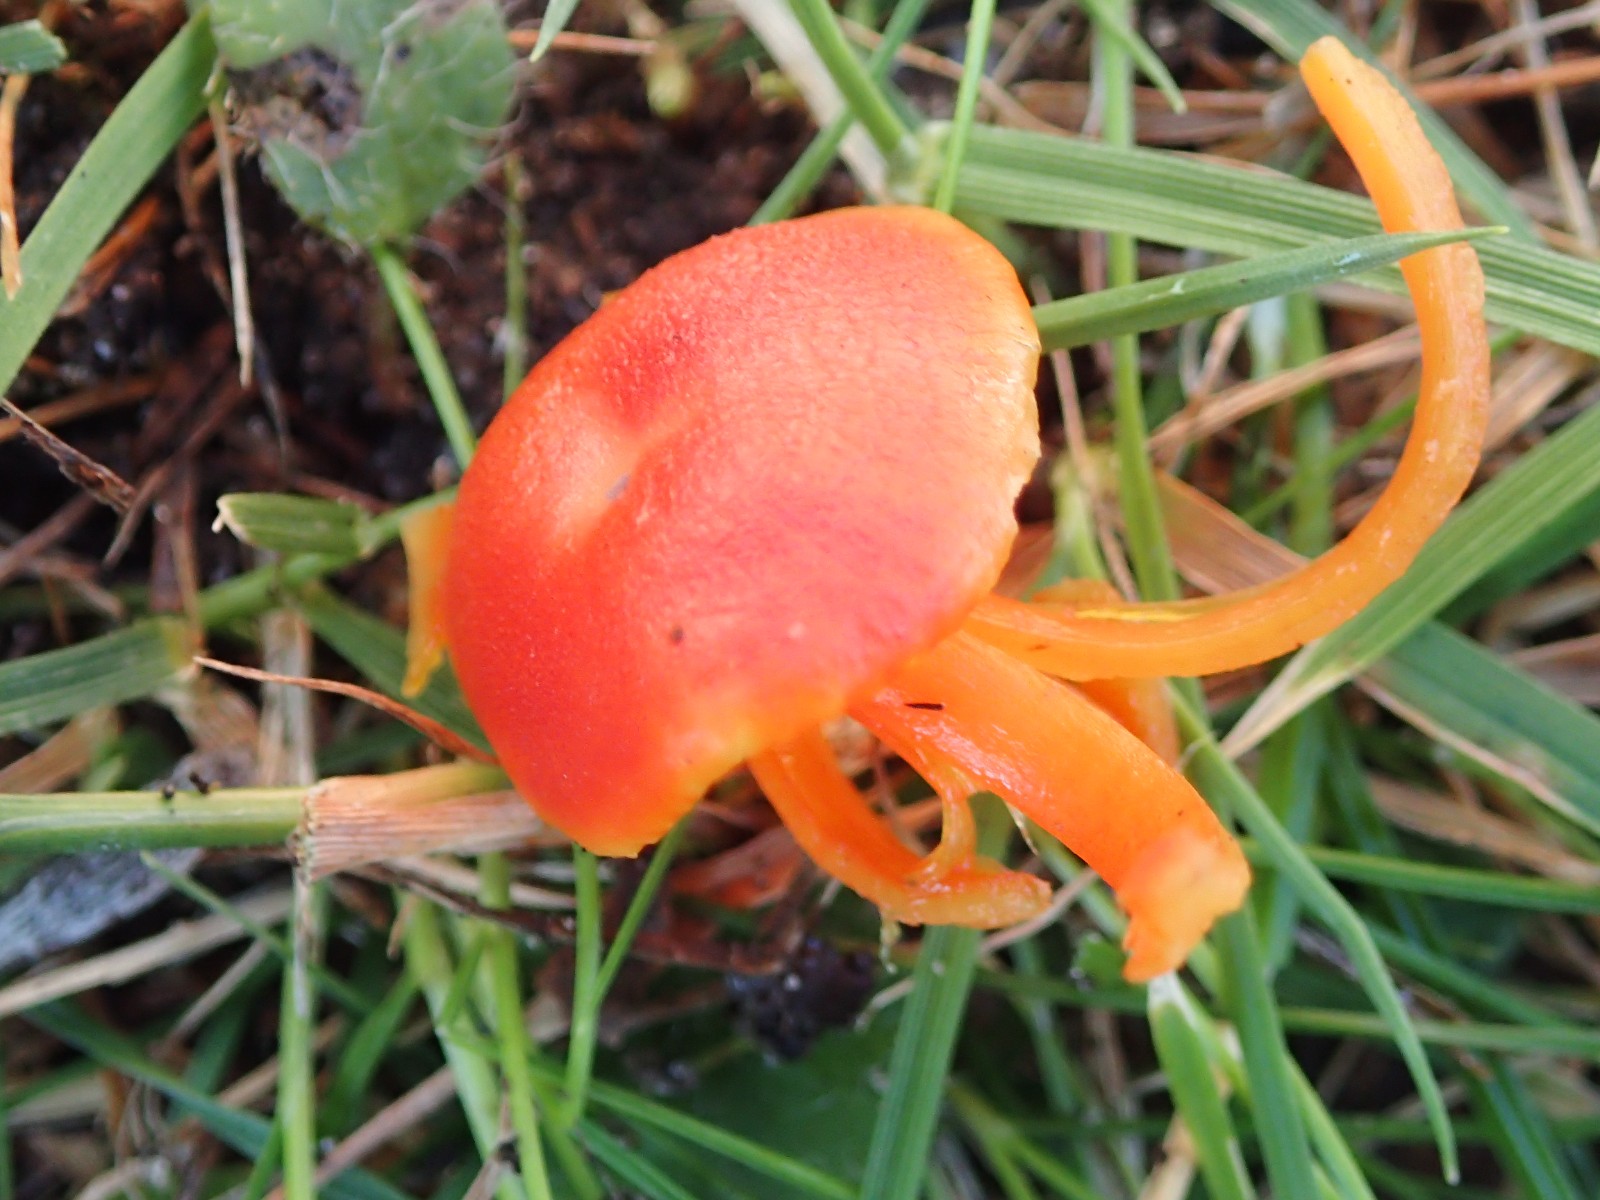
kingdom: Fungi
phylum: Basidiomycota
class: Agaricomycetes
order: Agaricales
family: Hygrophoraceae
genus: Hygrocybe
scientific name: Hygrocybe miniata
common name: mønje-vokshat
